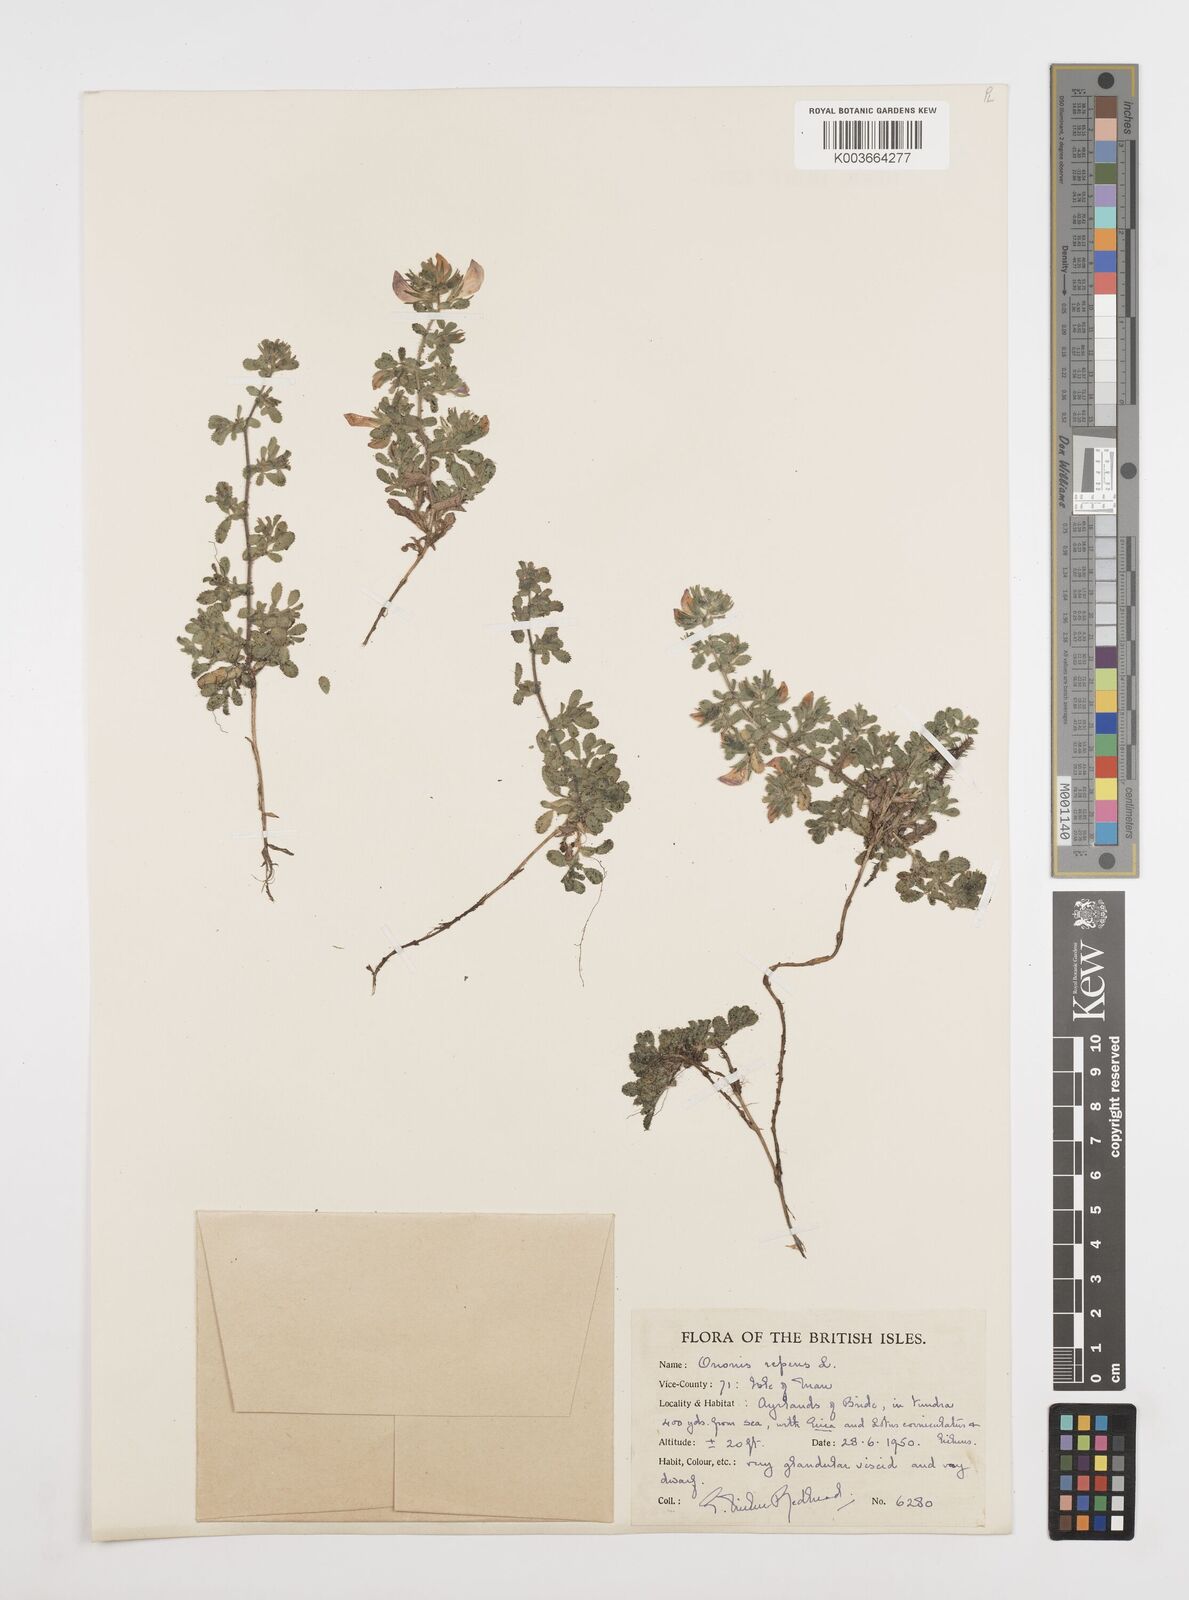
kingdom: Plantae
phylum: Tracheophyta
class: Magnoliopsida
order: Fabales
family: Fabaceae
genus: Ononis
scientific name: Ononis spinosa
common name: Spiny restharrow
